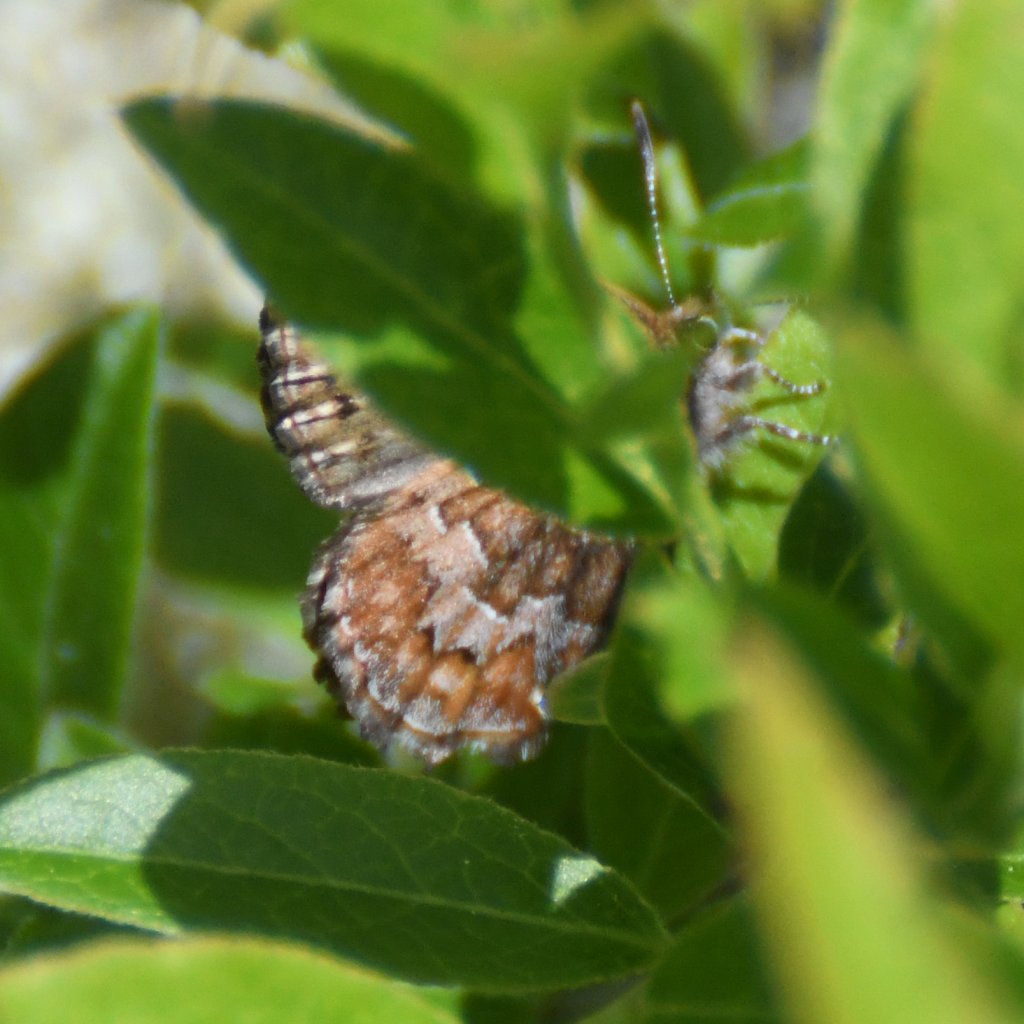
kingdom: Animalia
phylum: Arthropoda
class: Insecta
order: Lepidoptera
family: Lycaenidae
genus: Incisalia
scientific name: Incisalia niphon
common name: Eastern Pine Elfin
